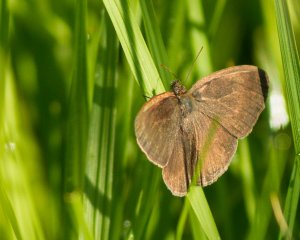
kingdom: Animalia
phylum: Arthropoda
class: Insecta
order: Lepidoptera
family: Nymphalidae
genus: Hermeuptychia
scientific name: Hermeuptychia hermes
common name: Carolina Satyr
